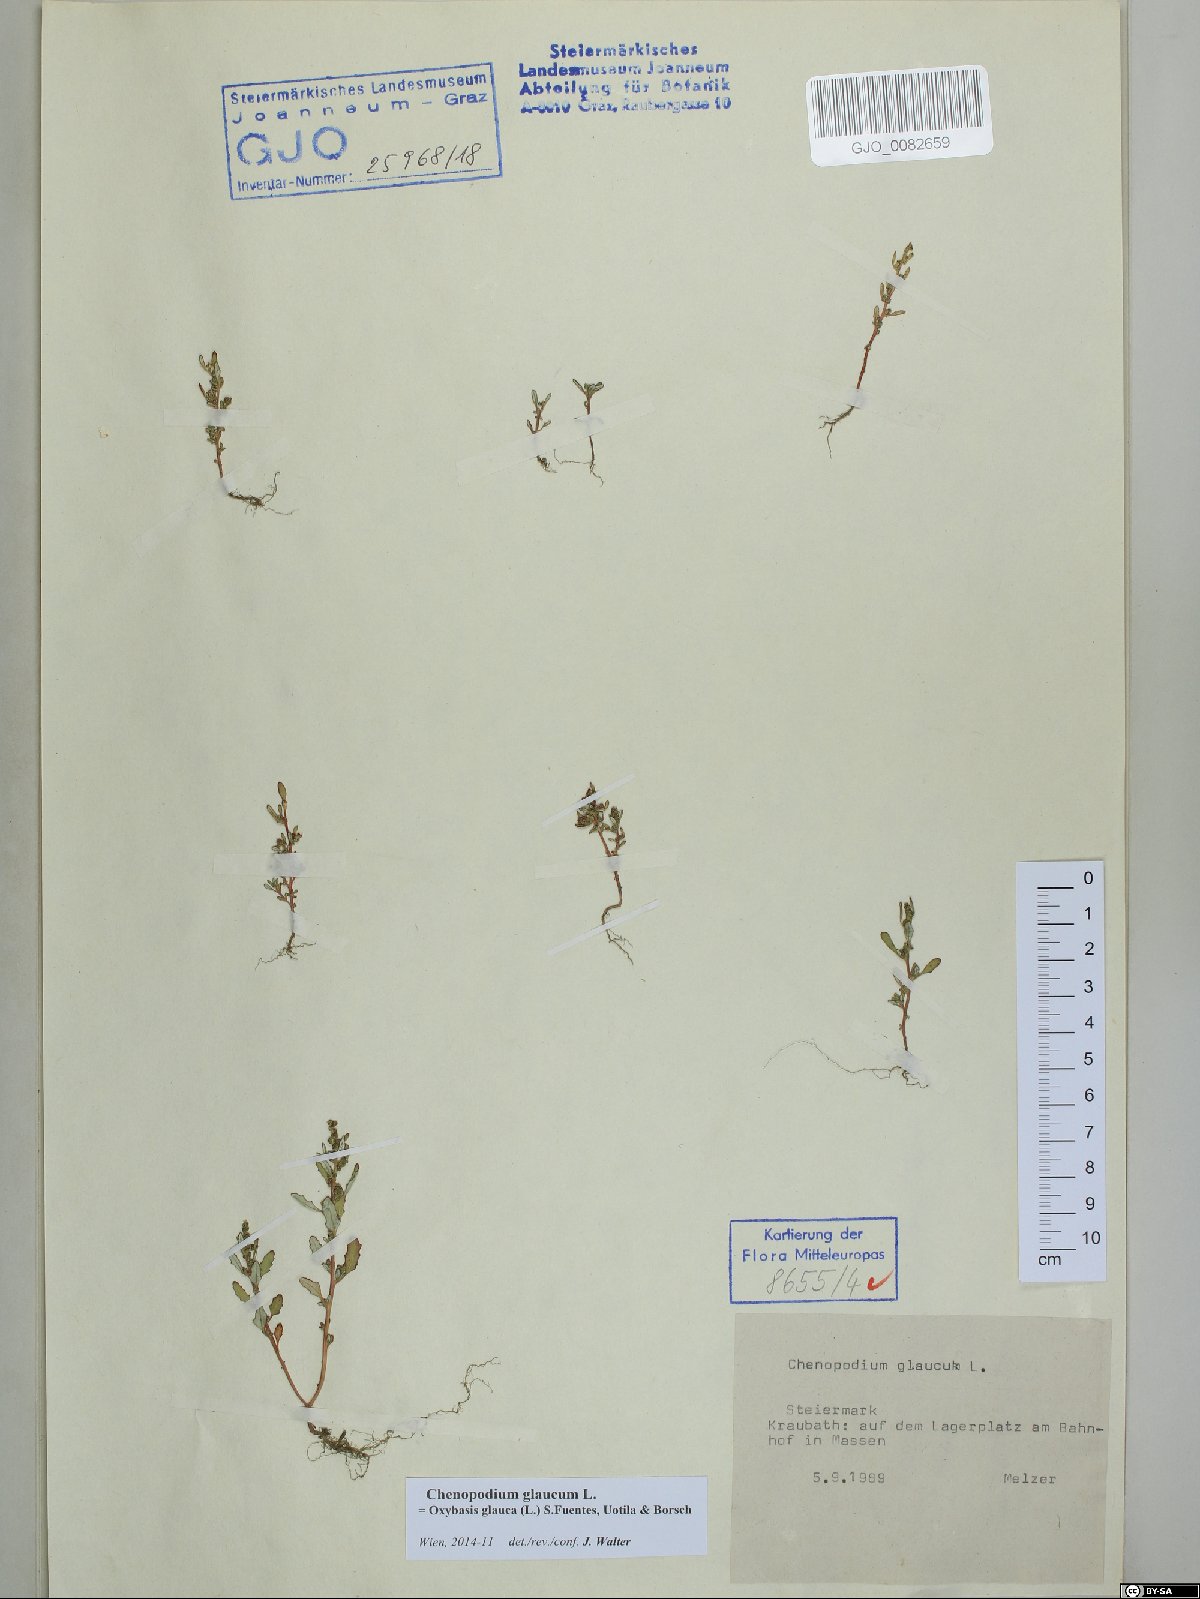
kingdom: Plantae
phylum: Tracheophyta
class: Magnoliopsida
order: Caryophyllales
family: Amaranthaceae
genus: Oxybasis
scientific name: Oxybasis glauca
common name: Glaucous goosefoot
